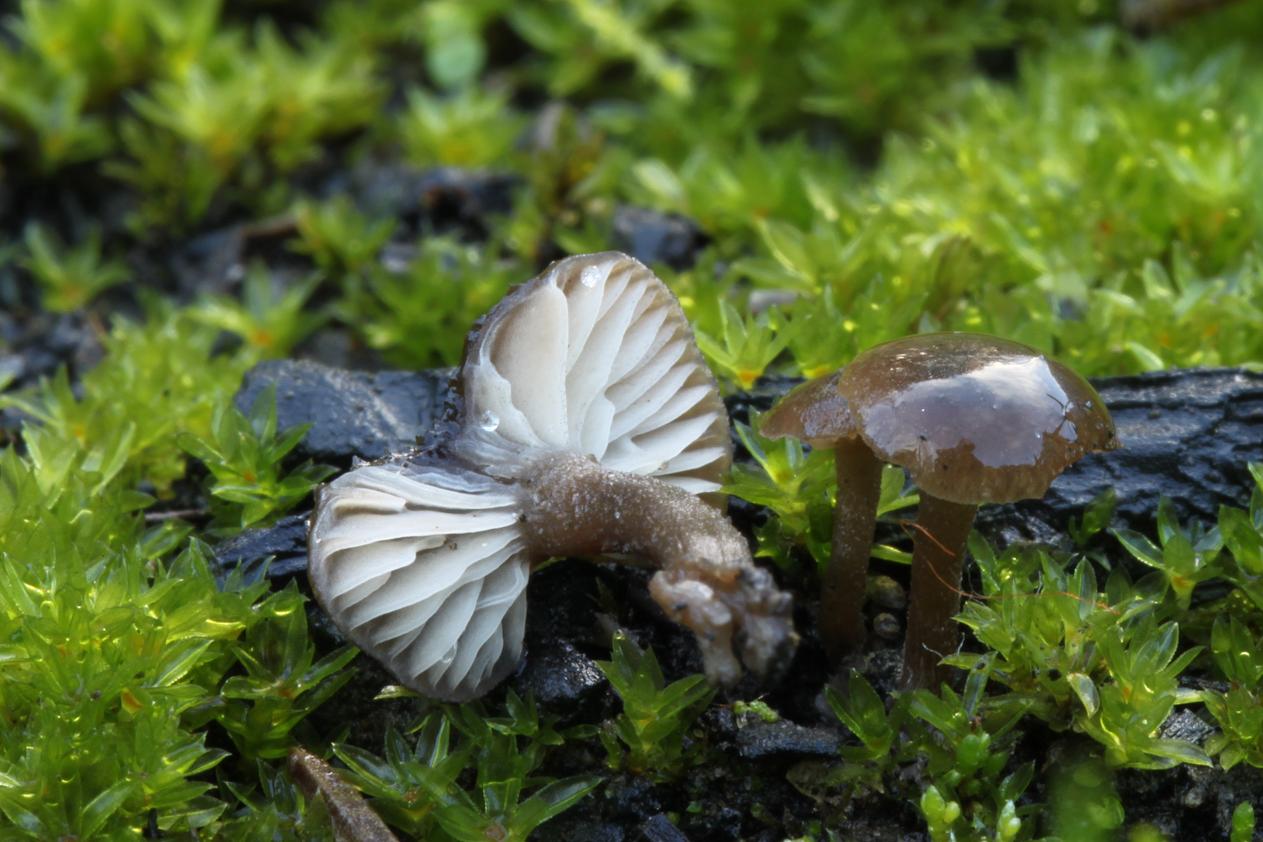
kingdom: Fungi
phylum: Basidiomycota
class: Agaricomycetes
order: Agaricales
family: Lyophyllaceae
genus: Tephrocybe
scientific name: Tephrocybe ambusta
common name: kul-gråblad
